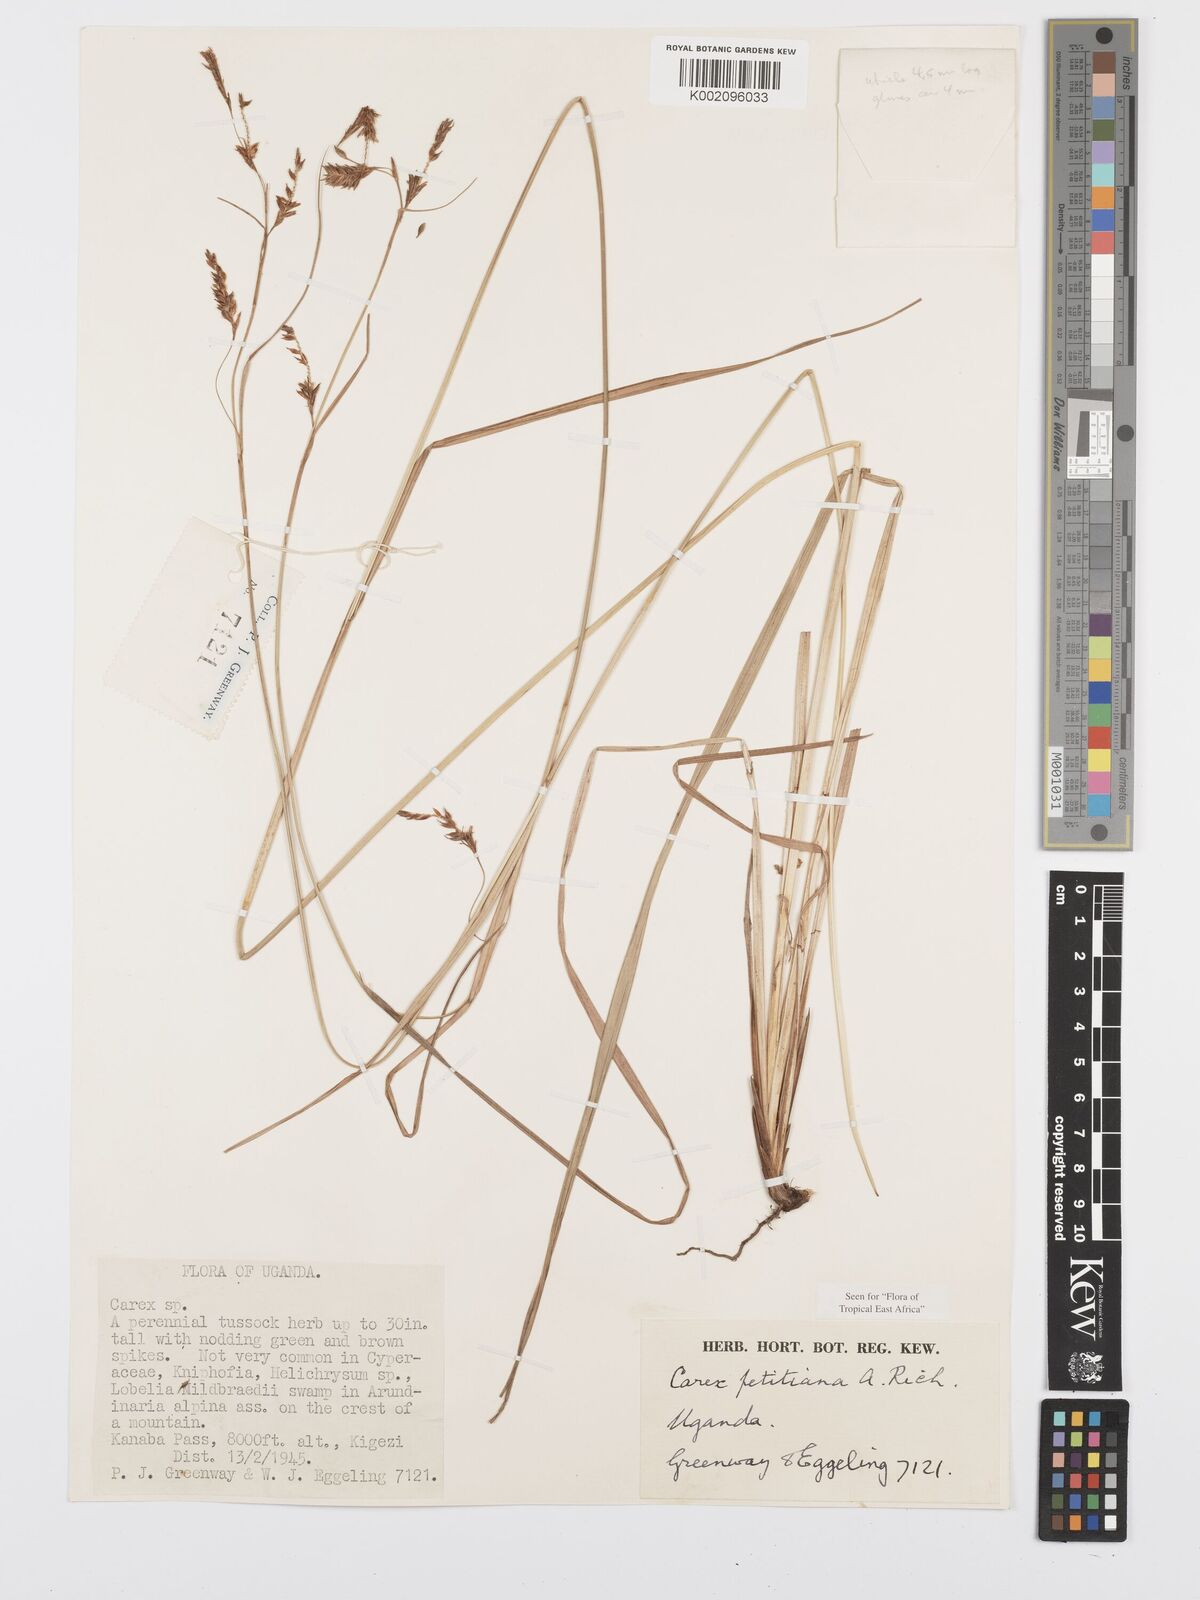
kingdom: Plantae
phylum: Tracheophyta
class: Liliopsida
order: Poales
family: Cyperaceae
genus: Carex
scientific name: Carex mannii
